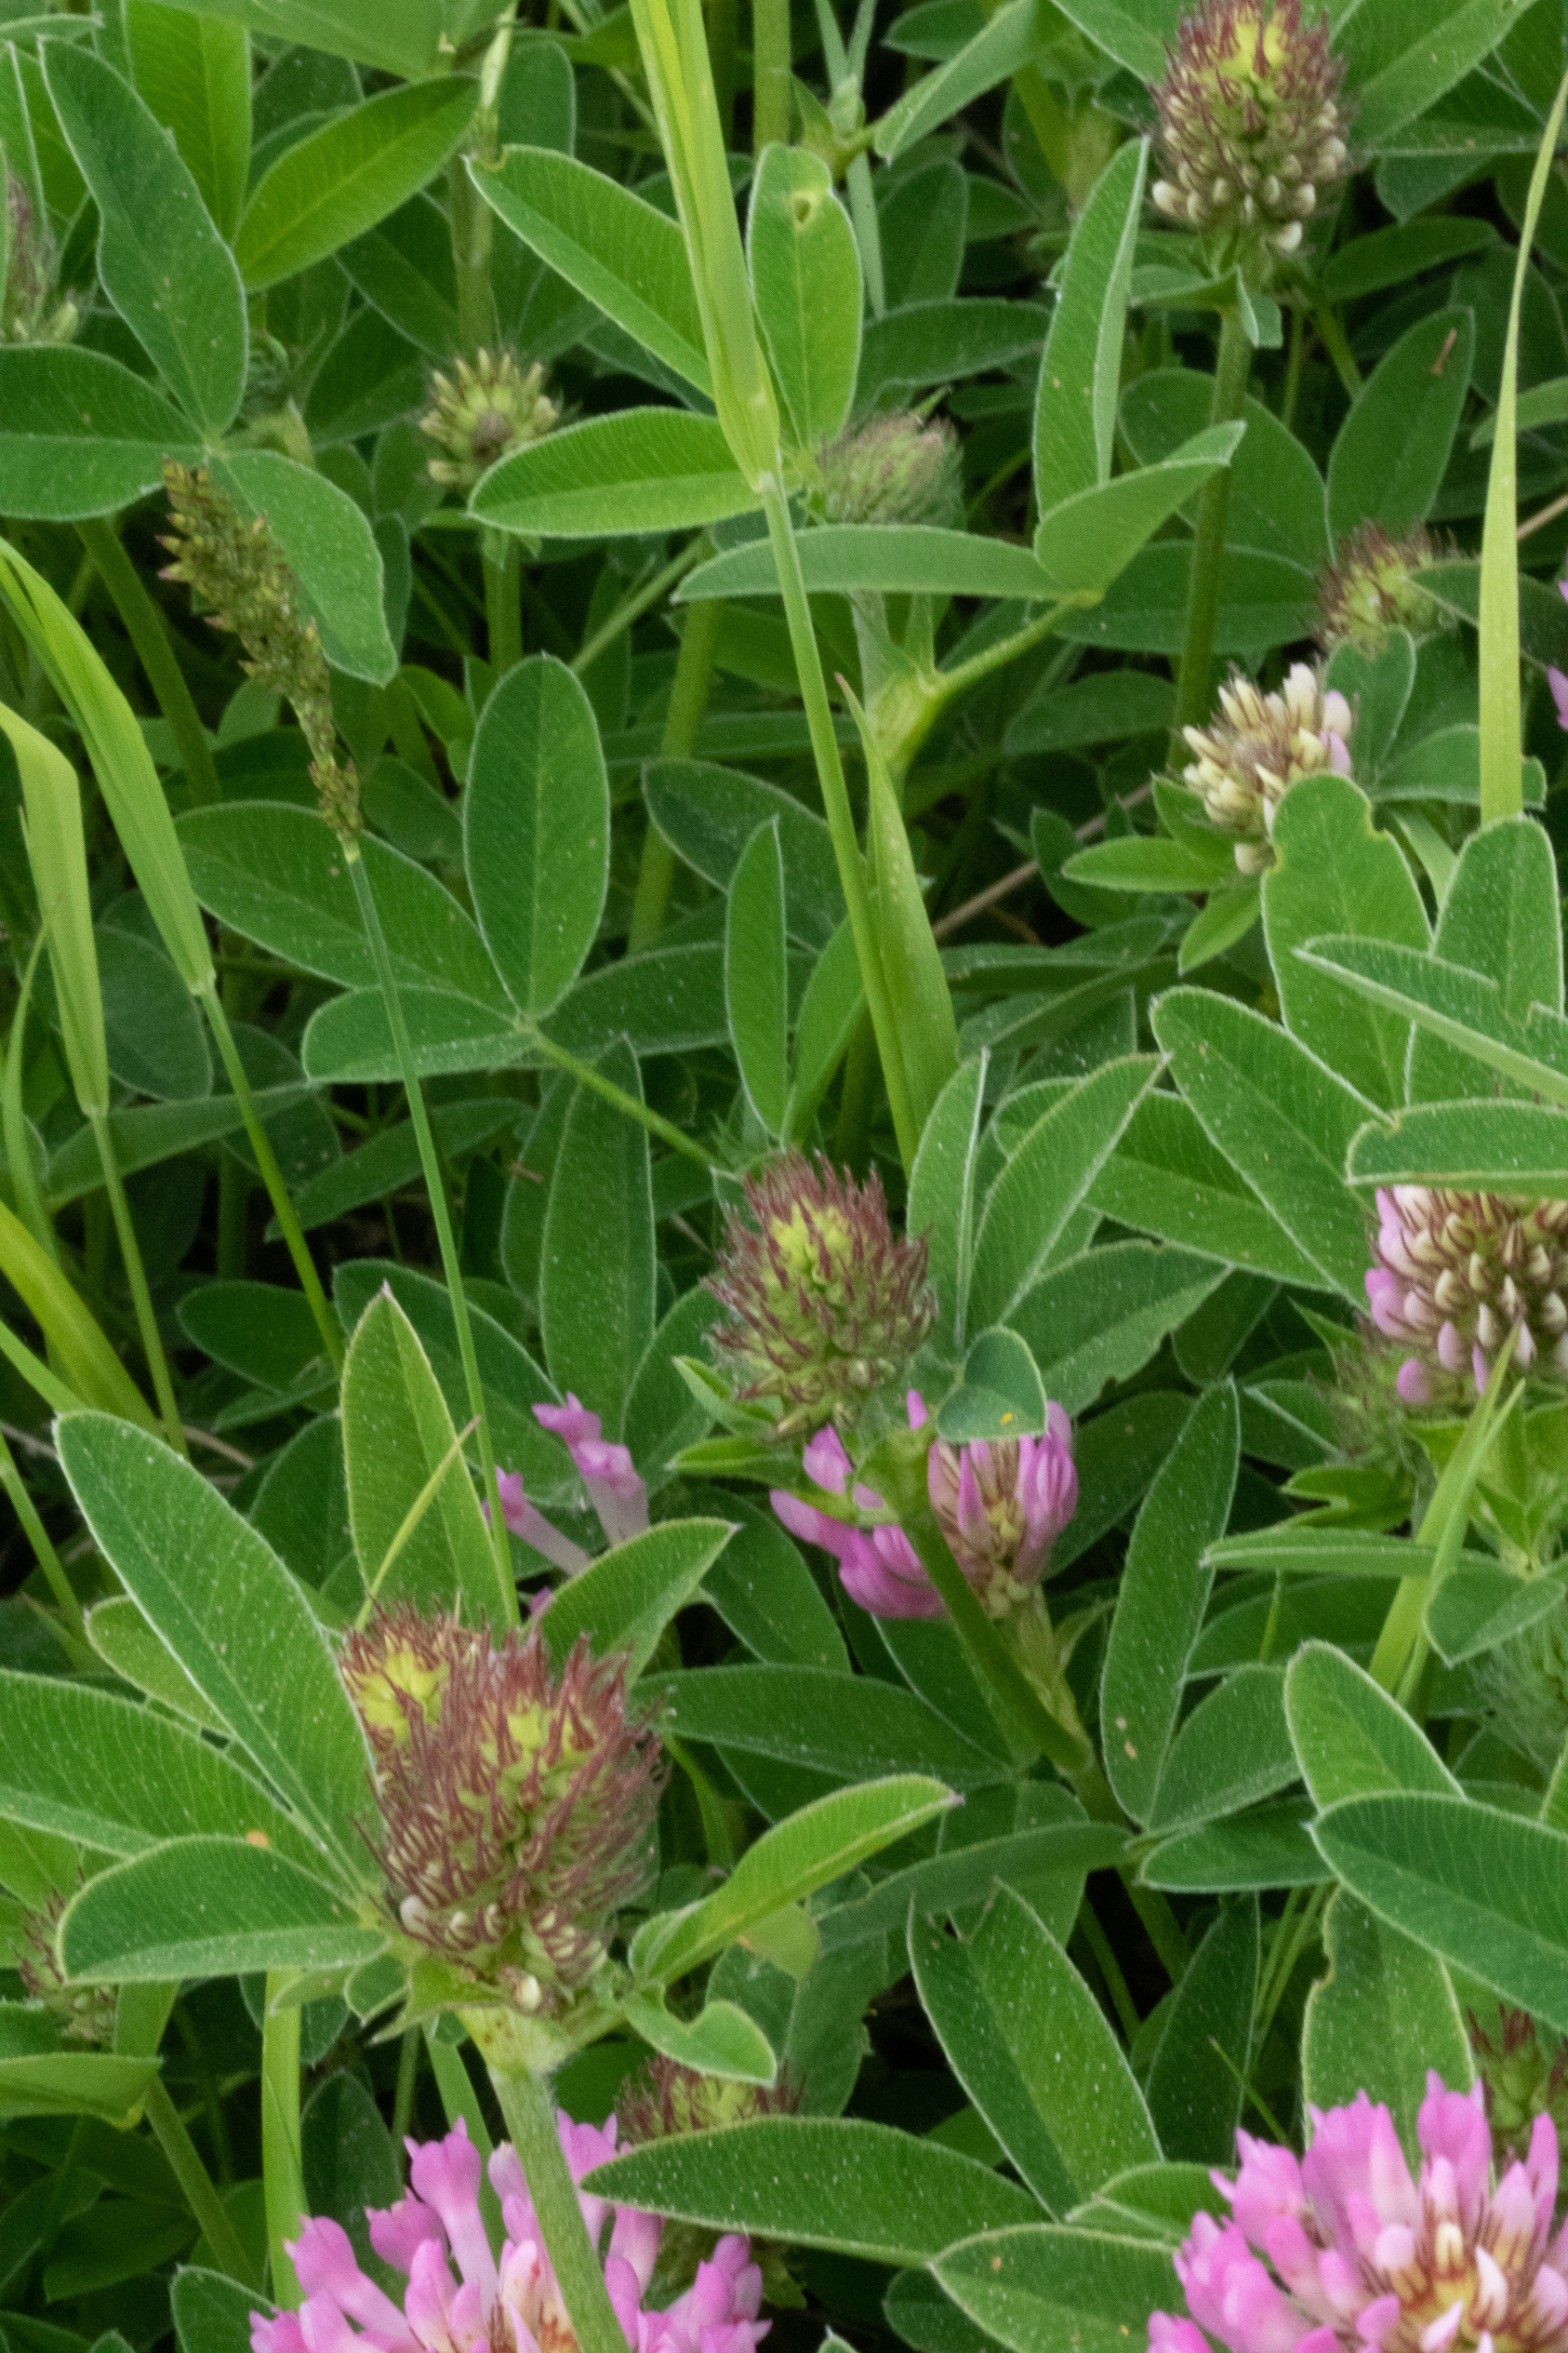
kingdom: Plantae
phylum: Tracheophyta
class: Magnoliopsida
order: Fabales
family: Fabaceae
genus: Trifolium
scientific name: Trifolium medium
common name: Bugtet kløver
